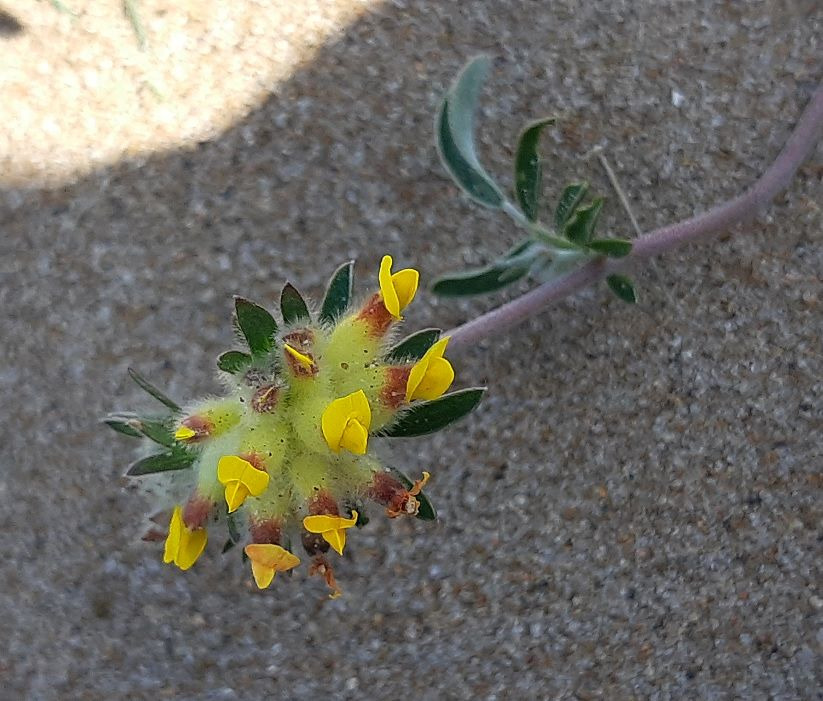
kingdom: Plantae
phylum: Tracheophyta
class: Magnoliopsida
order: Fabales
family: Fabaceae
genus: Anthyllis
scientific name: Anthyllis vulneraria
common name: Rundbælg
